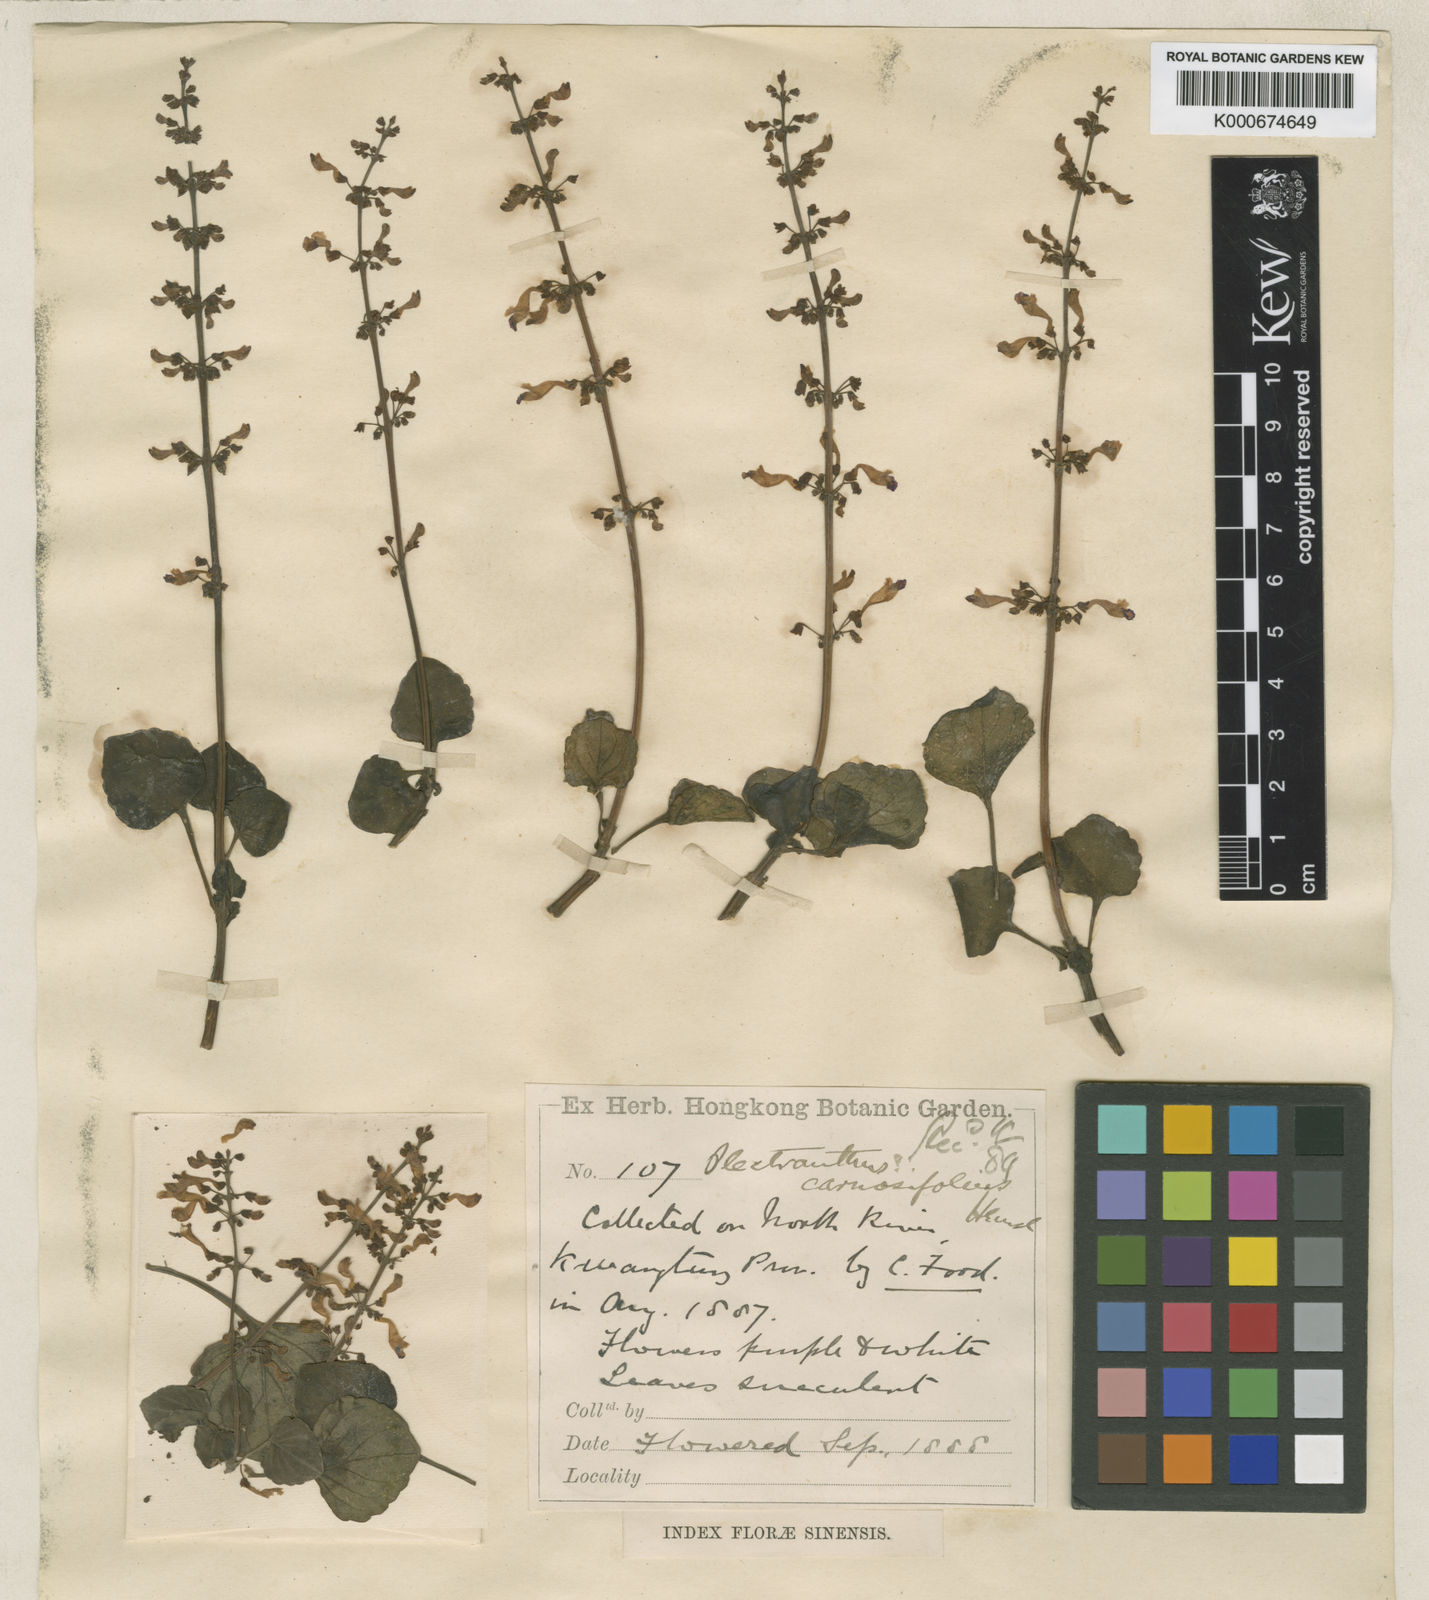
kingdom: Plantae
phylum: Tracheophyta
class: Magnoliopsida
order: Lamiales
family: Lamiaceae
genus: Coleus
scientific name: Coleus carnosifolius
